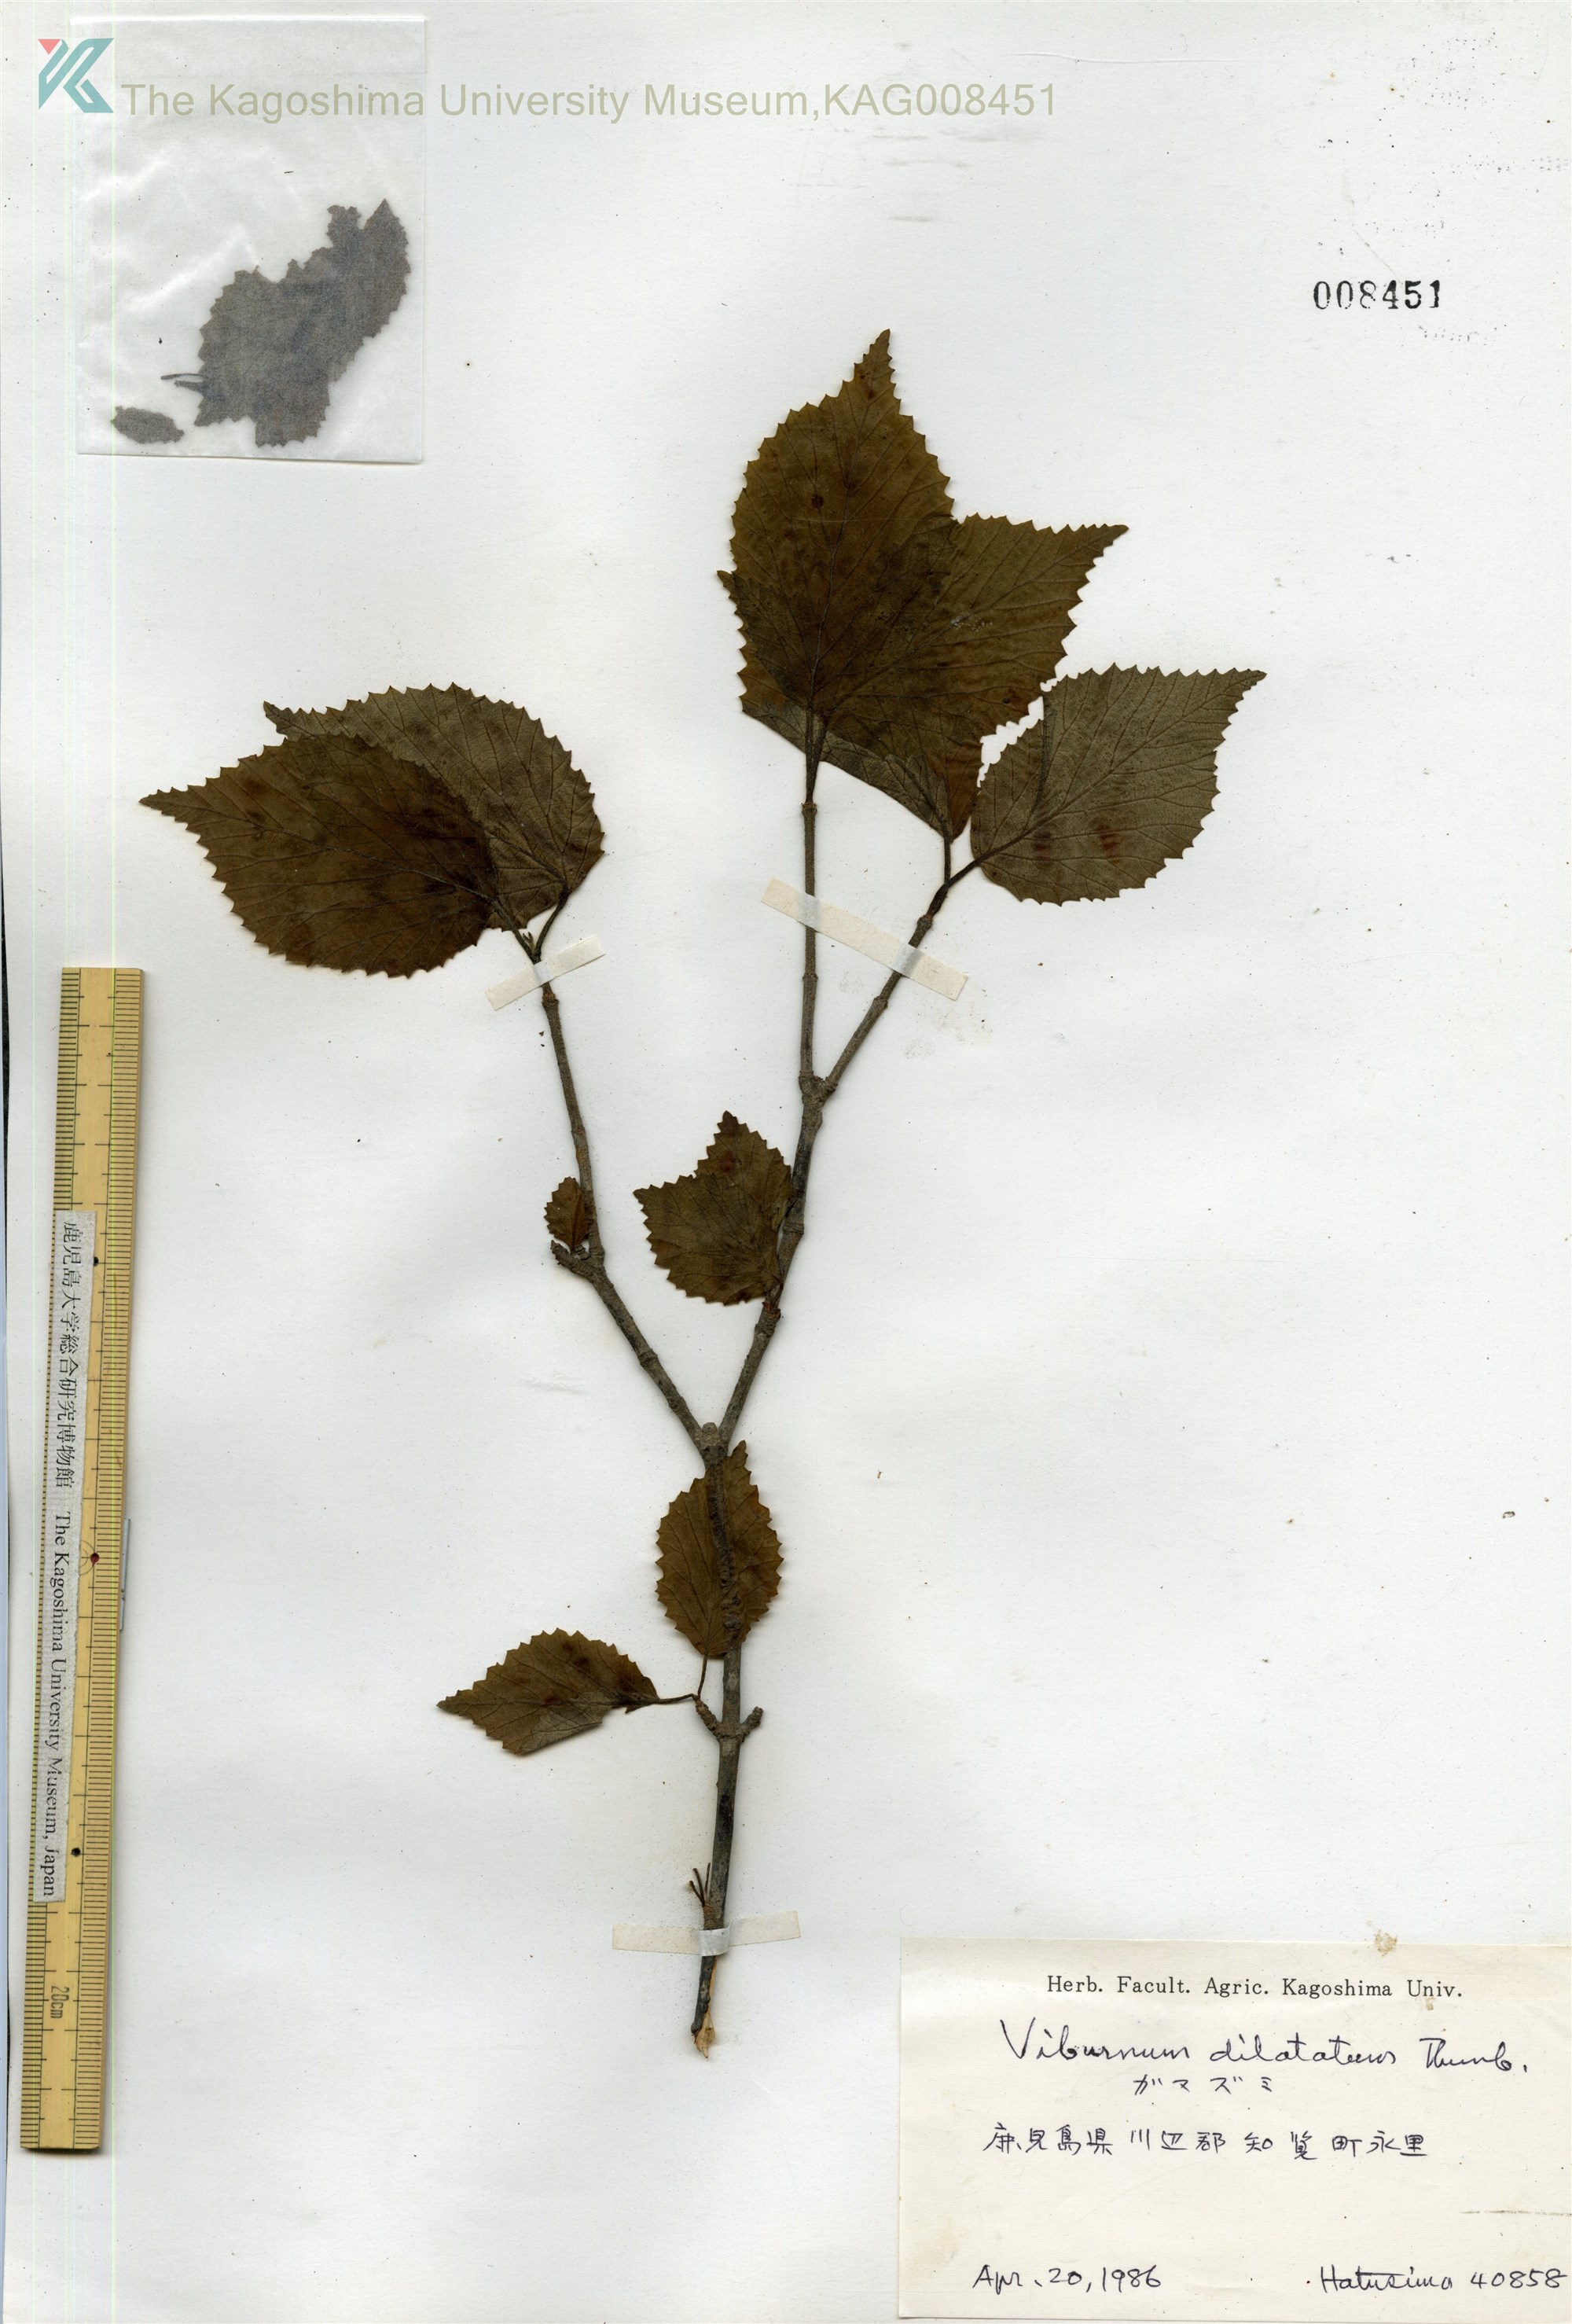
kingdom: Plantae
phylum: Tracheophyta
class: Magnoliopsida
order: Dipsacales
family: Viburnaceae
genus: Viburnum
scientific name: Viburnum dilatatum
